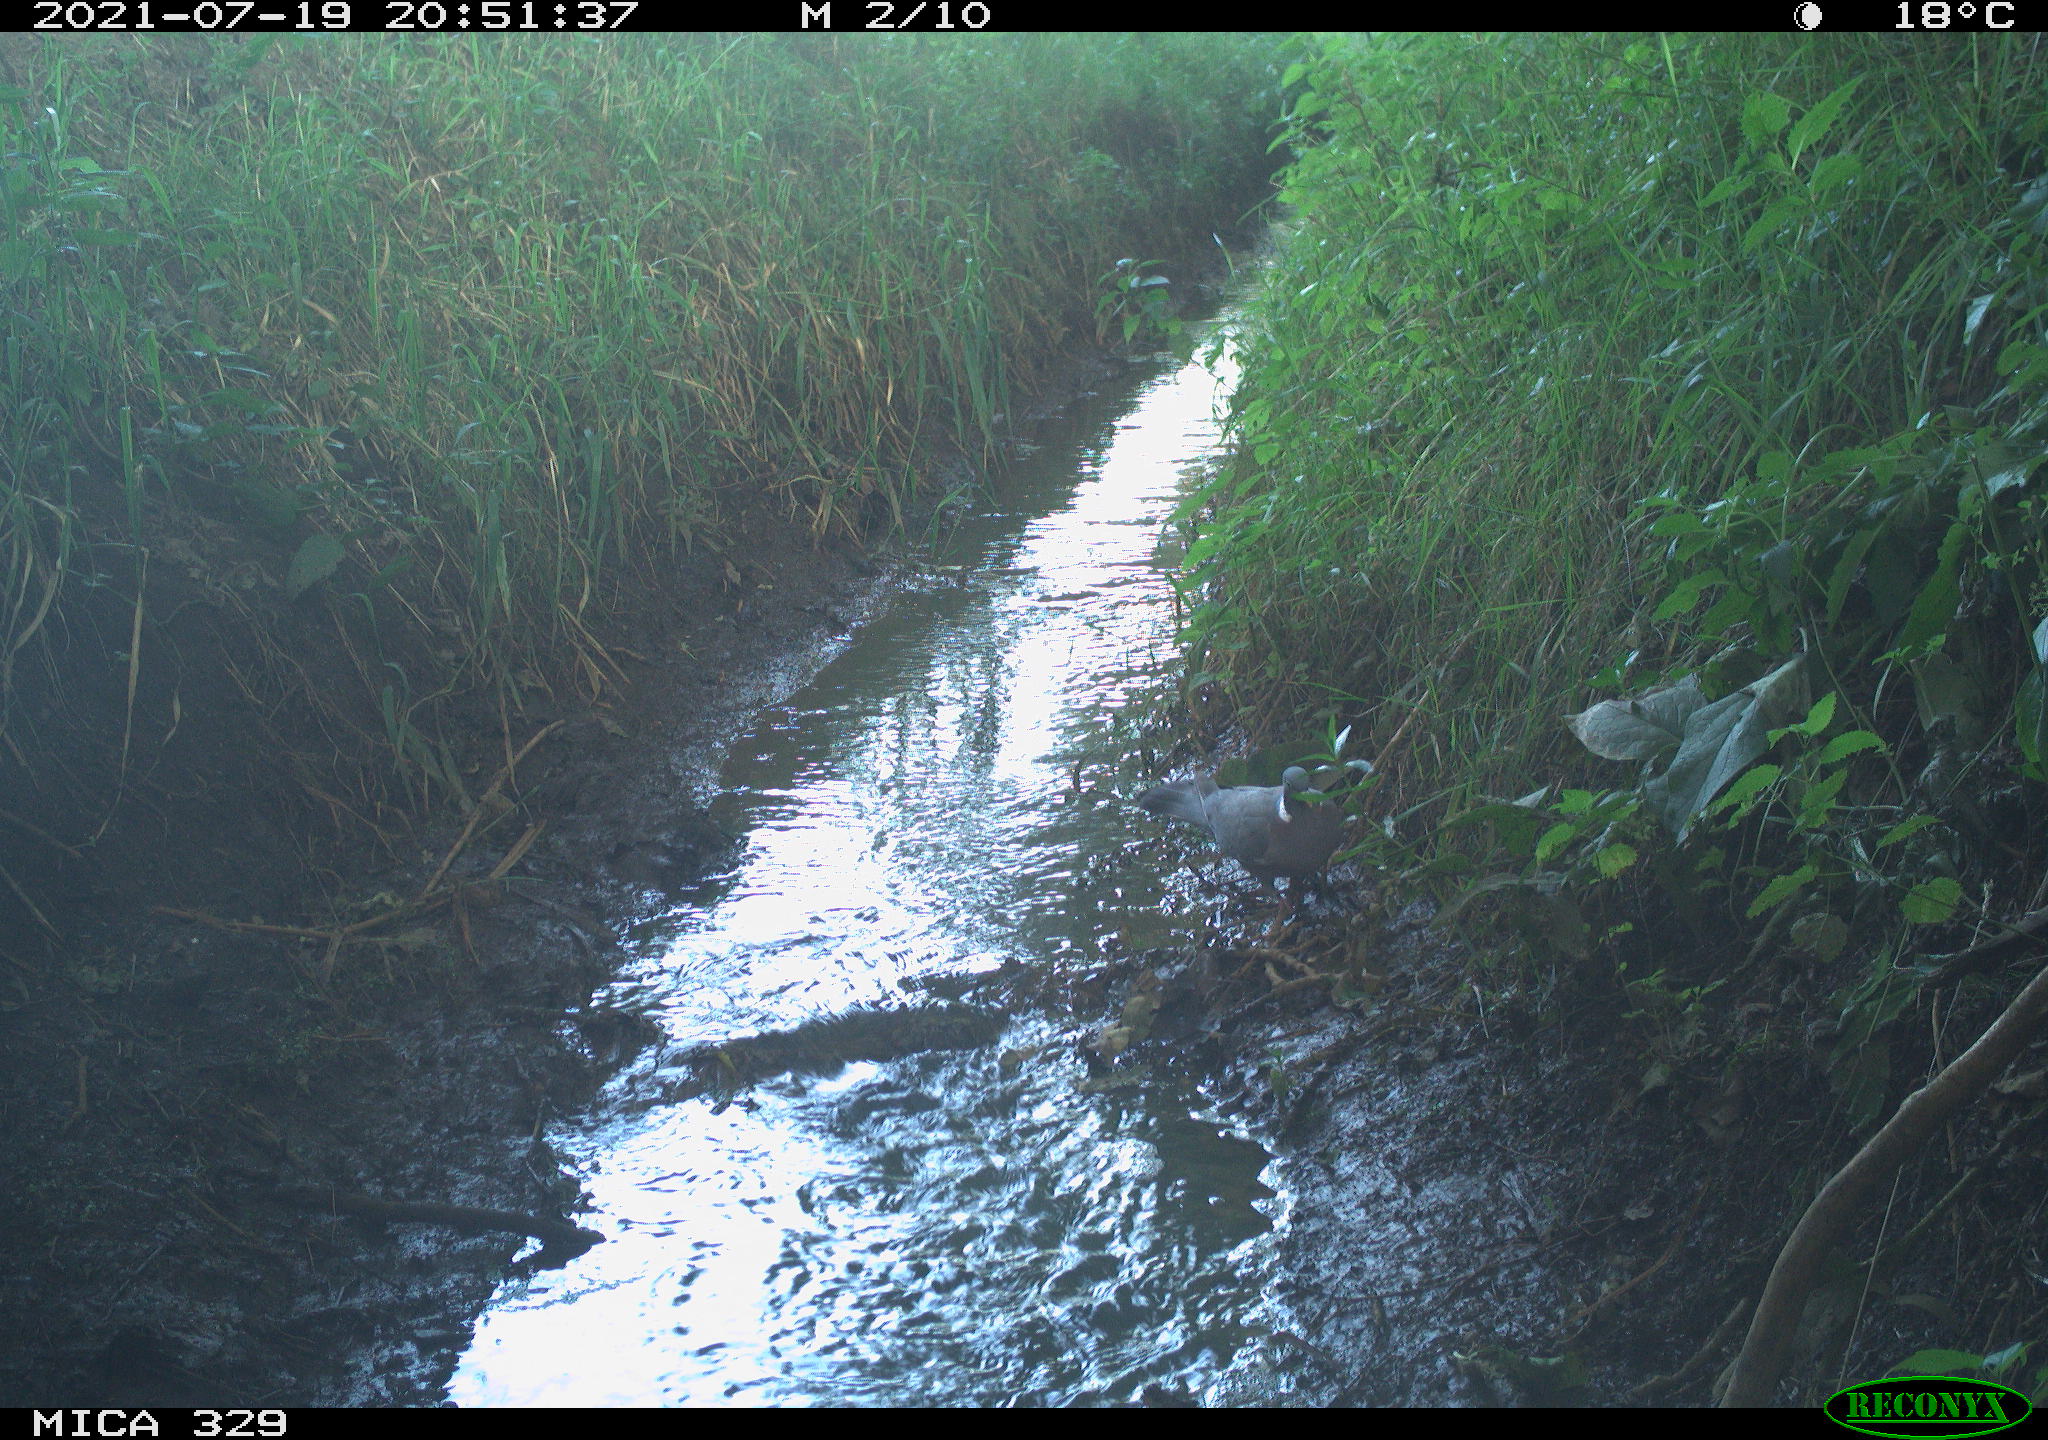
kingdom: Animalia
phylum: Chordata
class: Aves
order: Columbiformes
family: Columbidae
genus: Columba
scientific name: Columba palumbus
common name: Common wood pigeon
